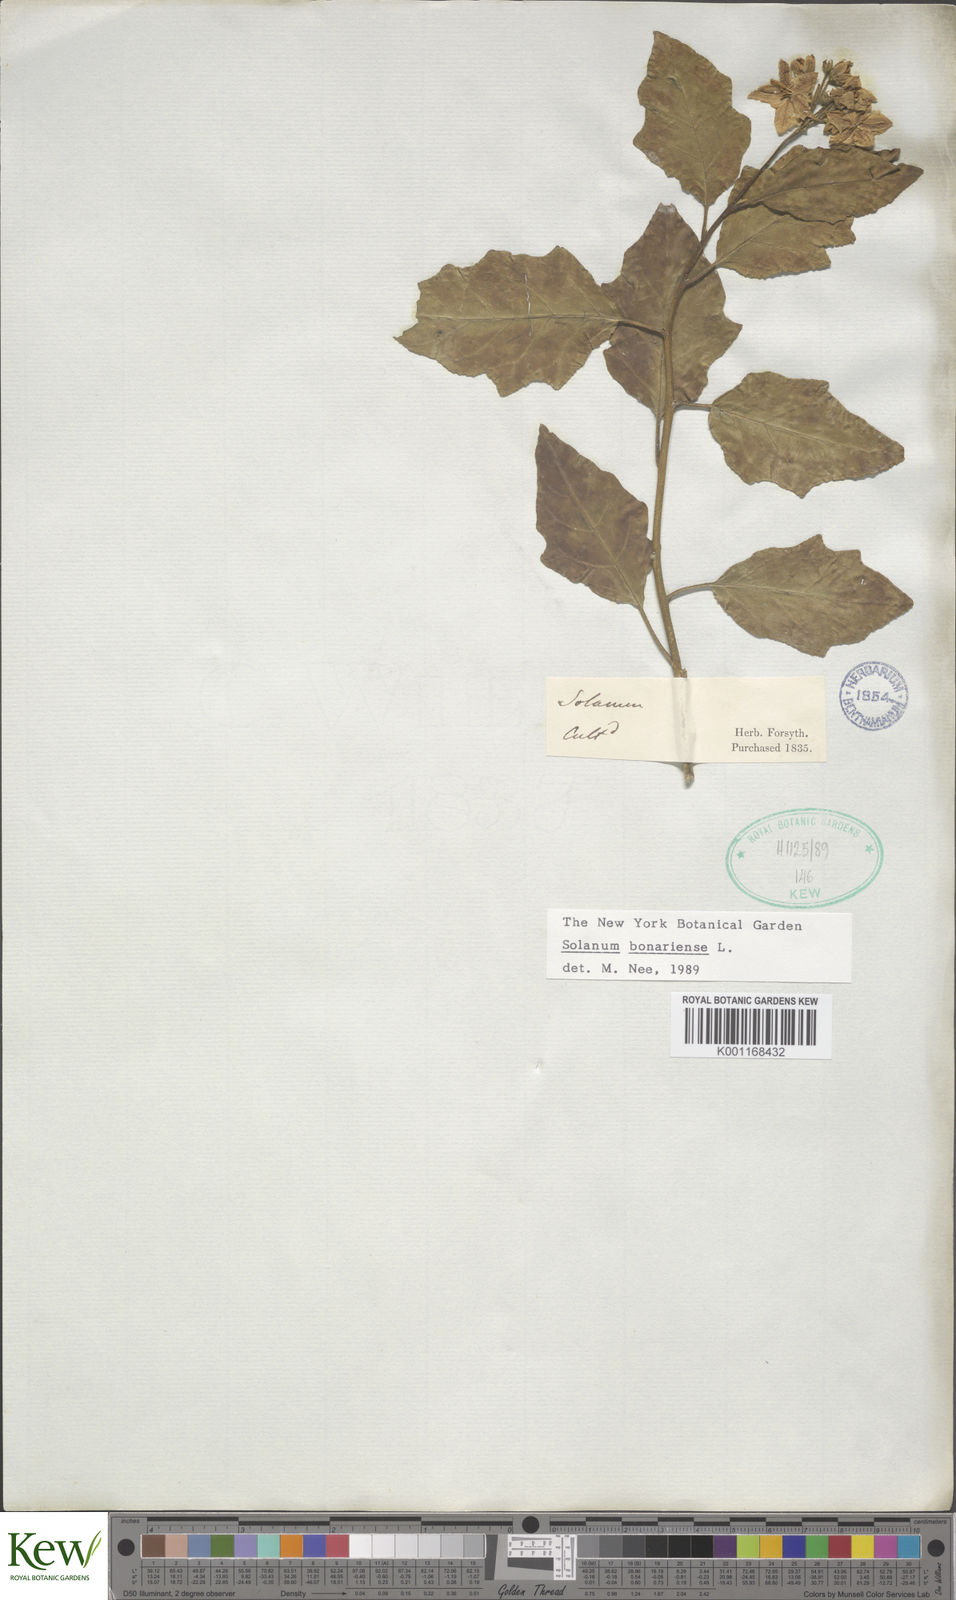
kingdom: Plantae
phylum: Tracheophyta
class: Magnoliopsida
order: Solanales
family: Solanaceae
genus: Solanum
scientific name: Solanum bonariense
